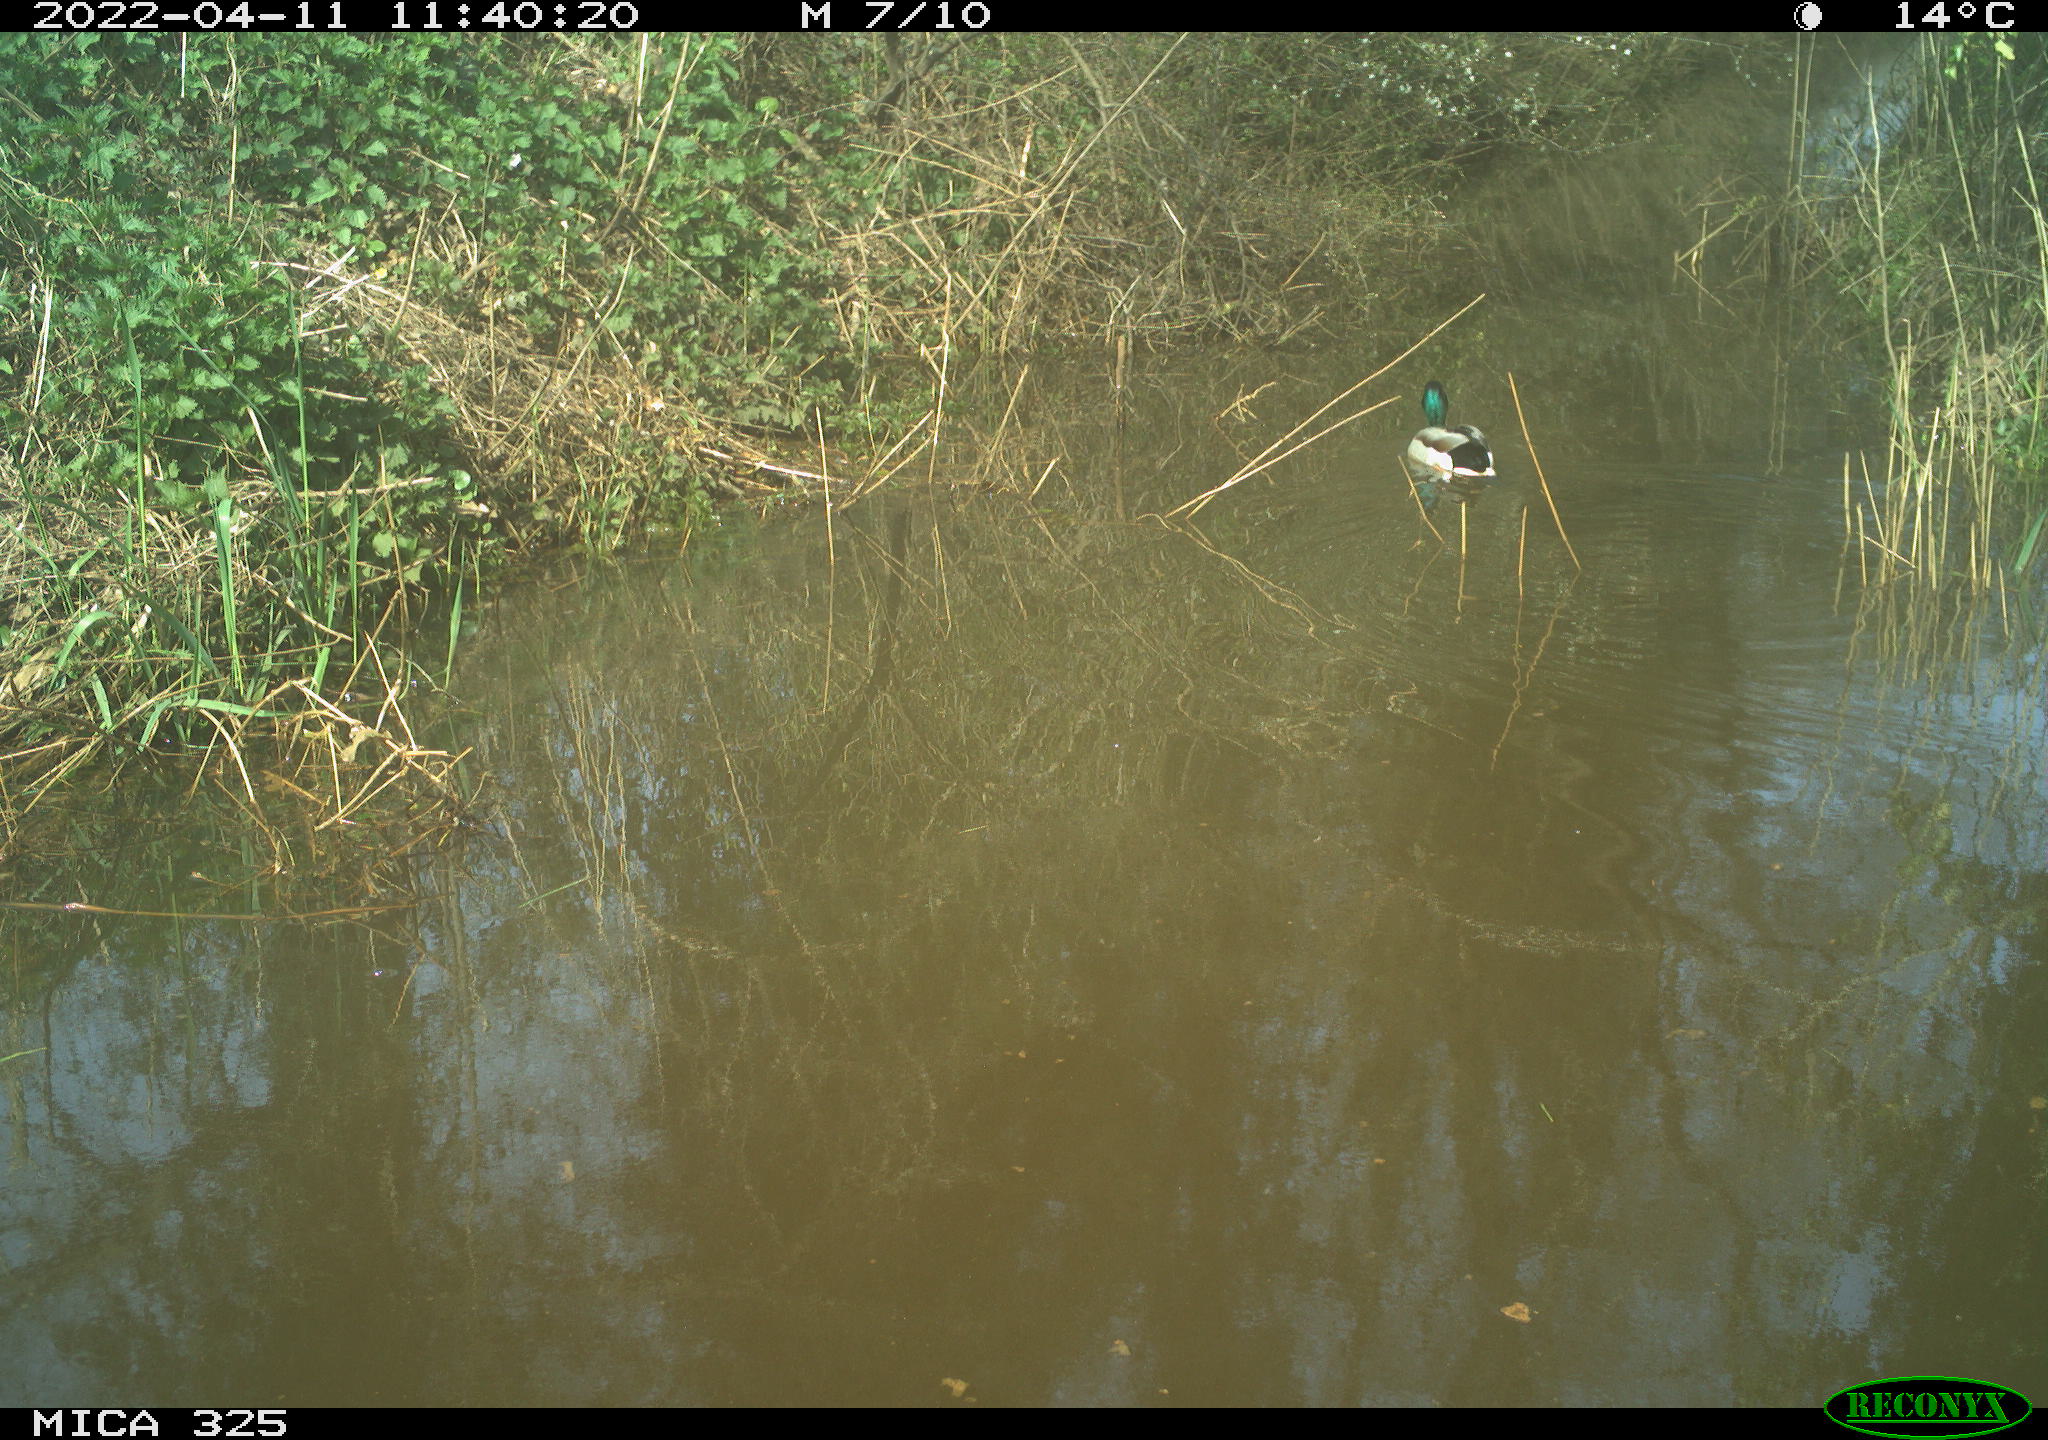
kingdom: Animalia
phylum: Chordata
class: Aves
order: Anseriformes
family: Anatidae
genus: Anas
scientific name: Anas platyrhynchos
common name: Mallard
